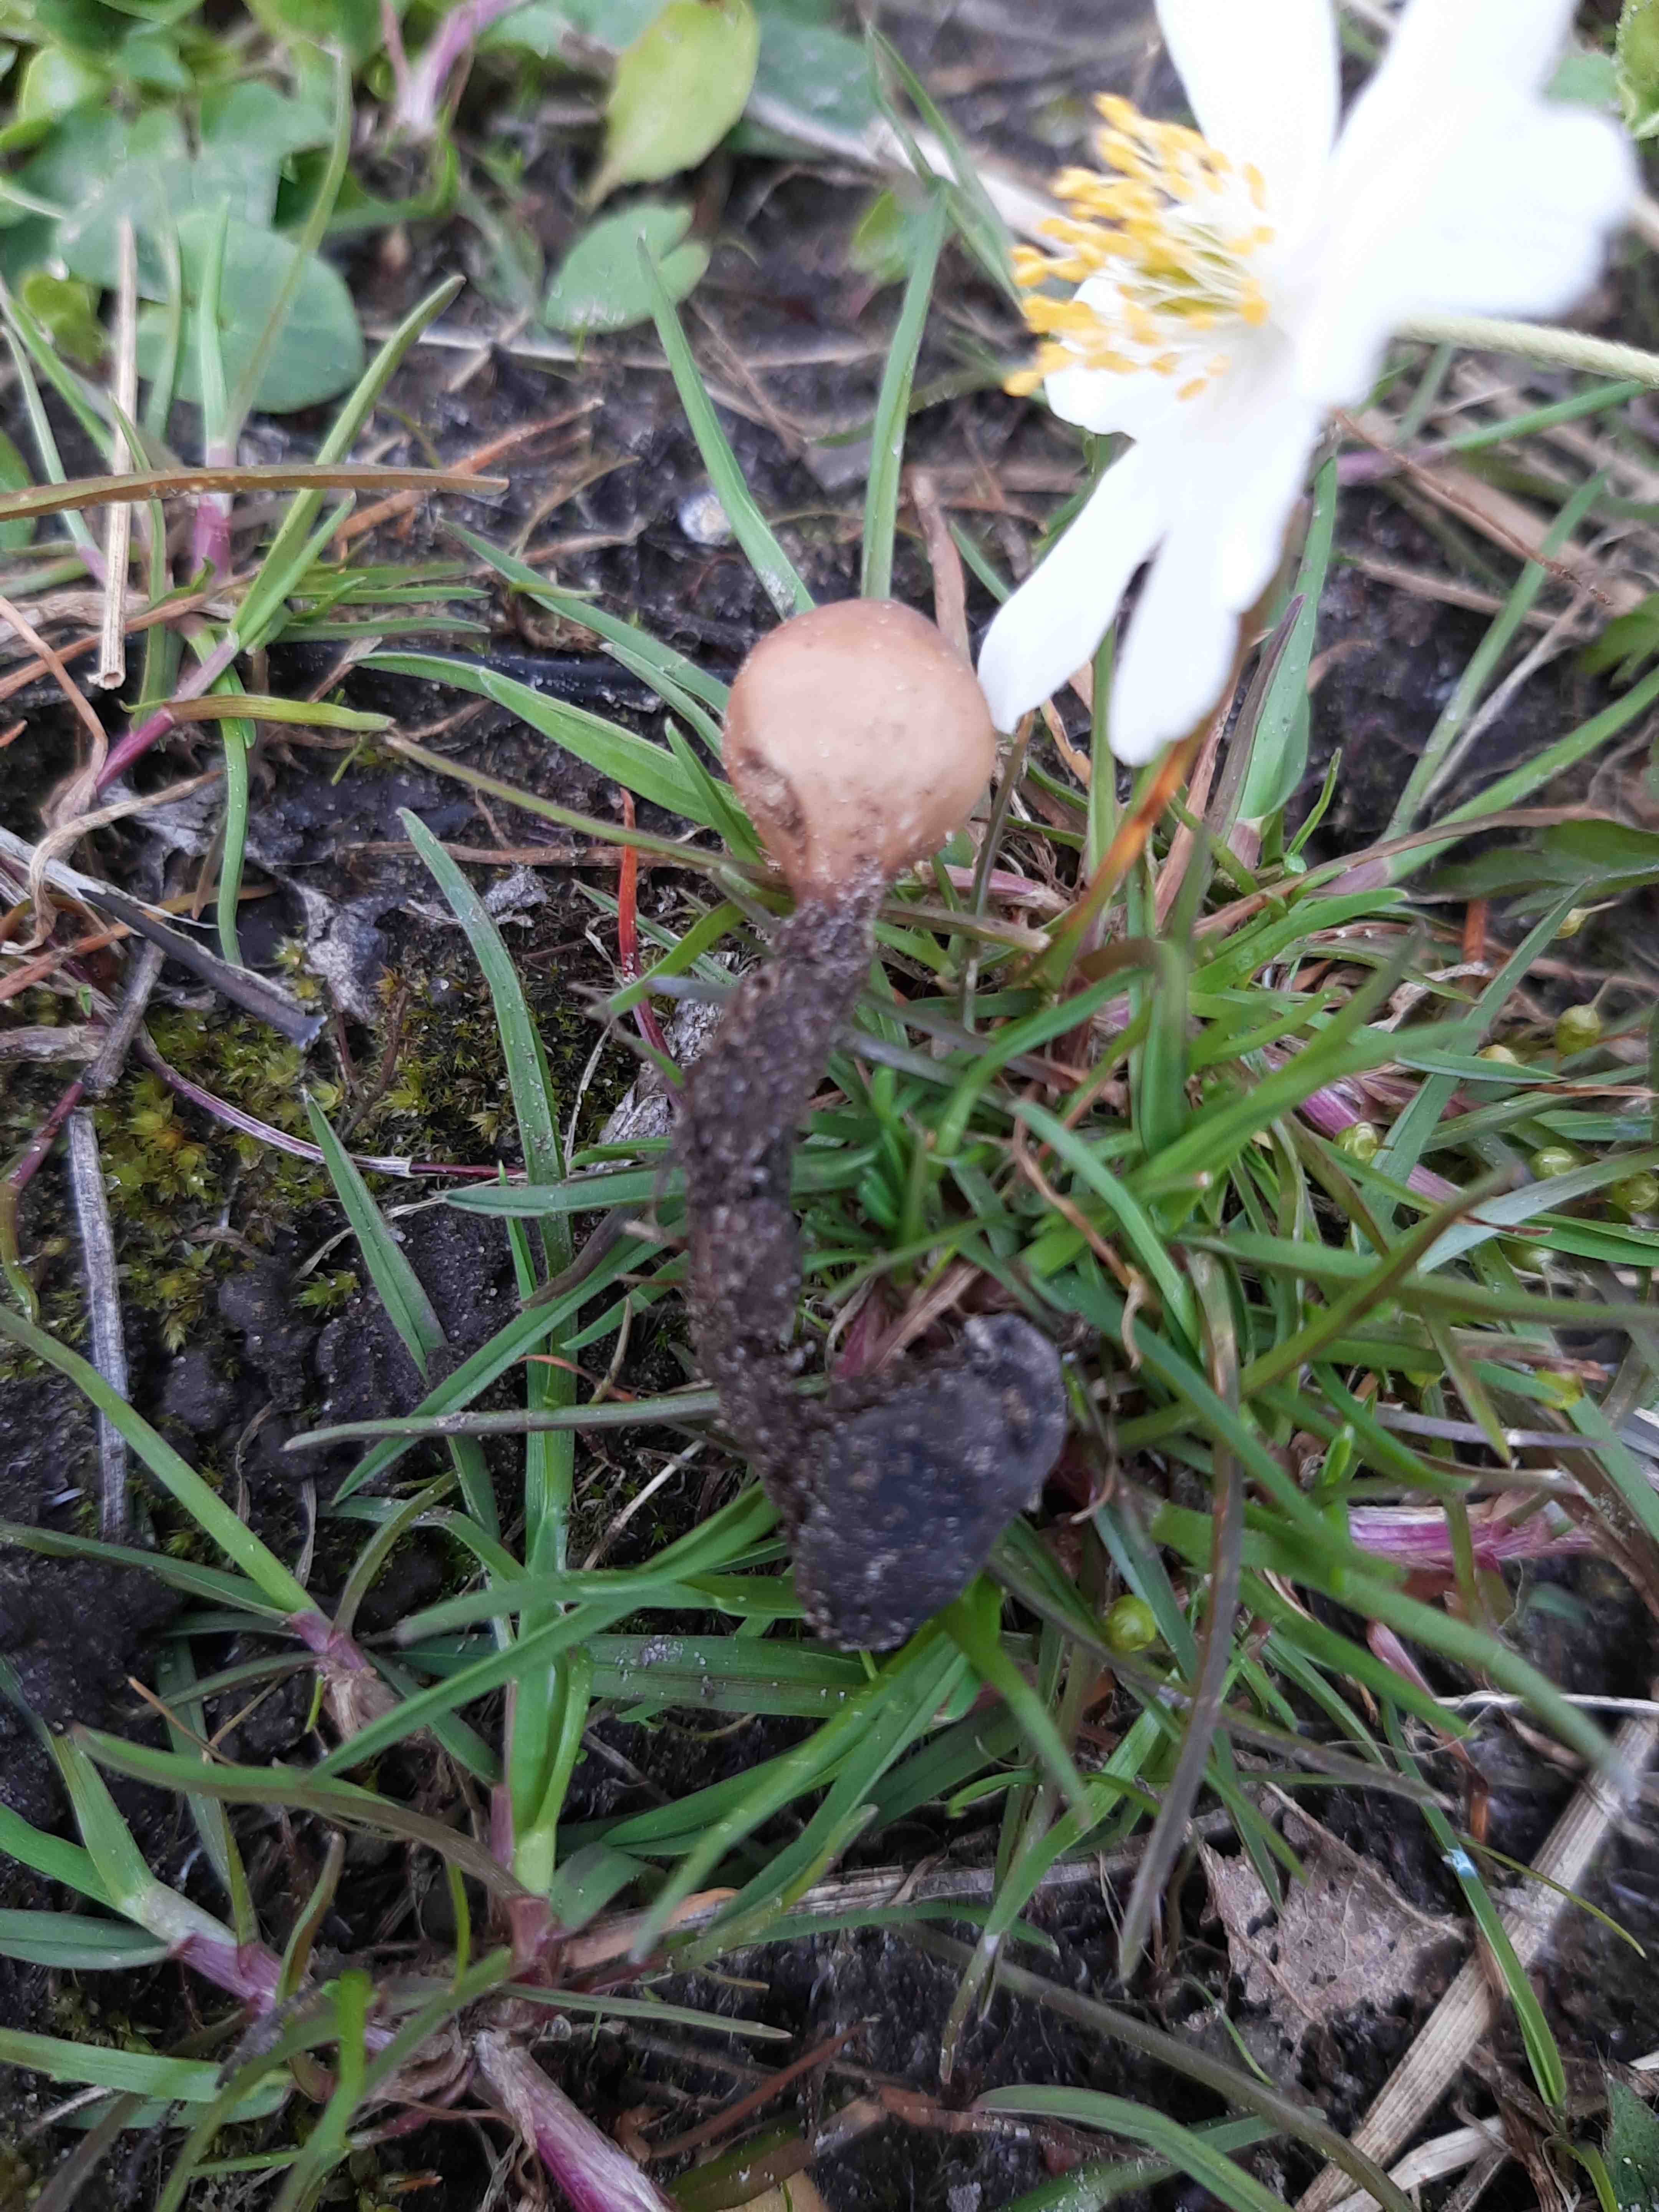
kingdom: Fungi
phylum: Ascomycota
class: Leotiomycetes
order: Helotiales
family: Sclerotiniaceae
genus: Dumontinia
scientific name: Dumontinia tuberosa
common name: anemone-knoldskive
